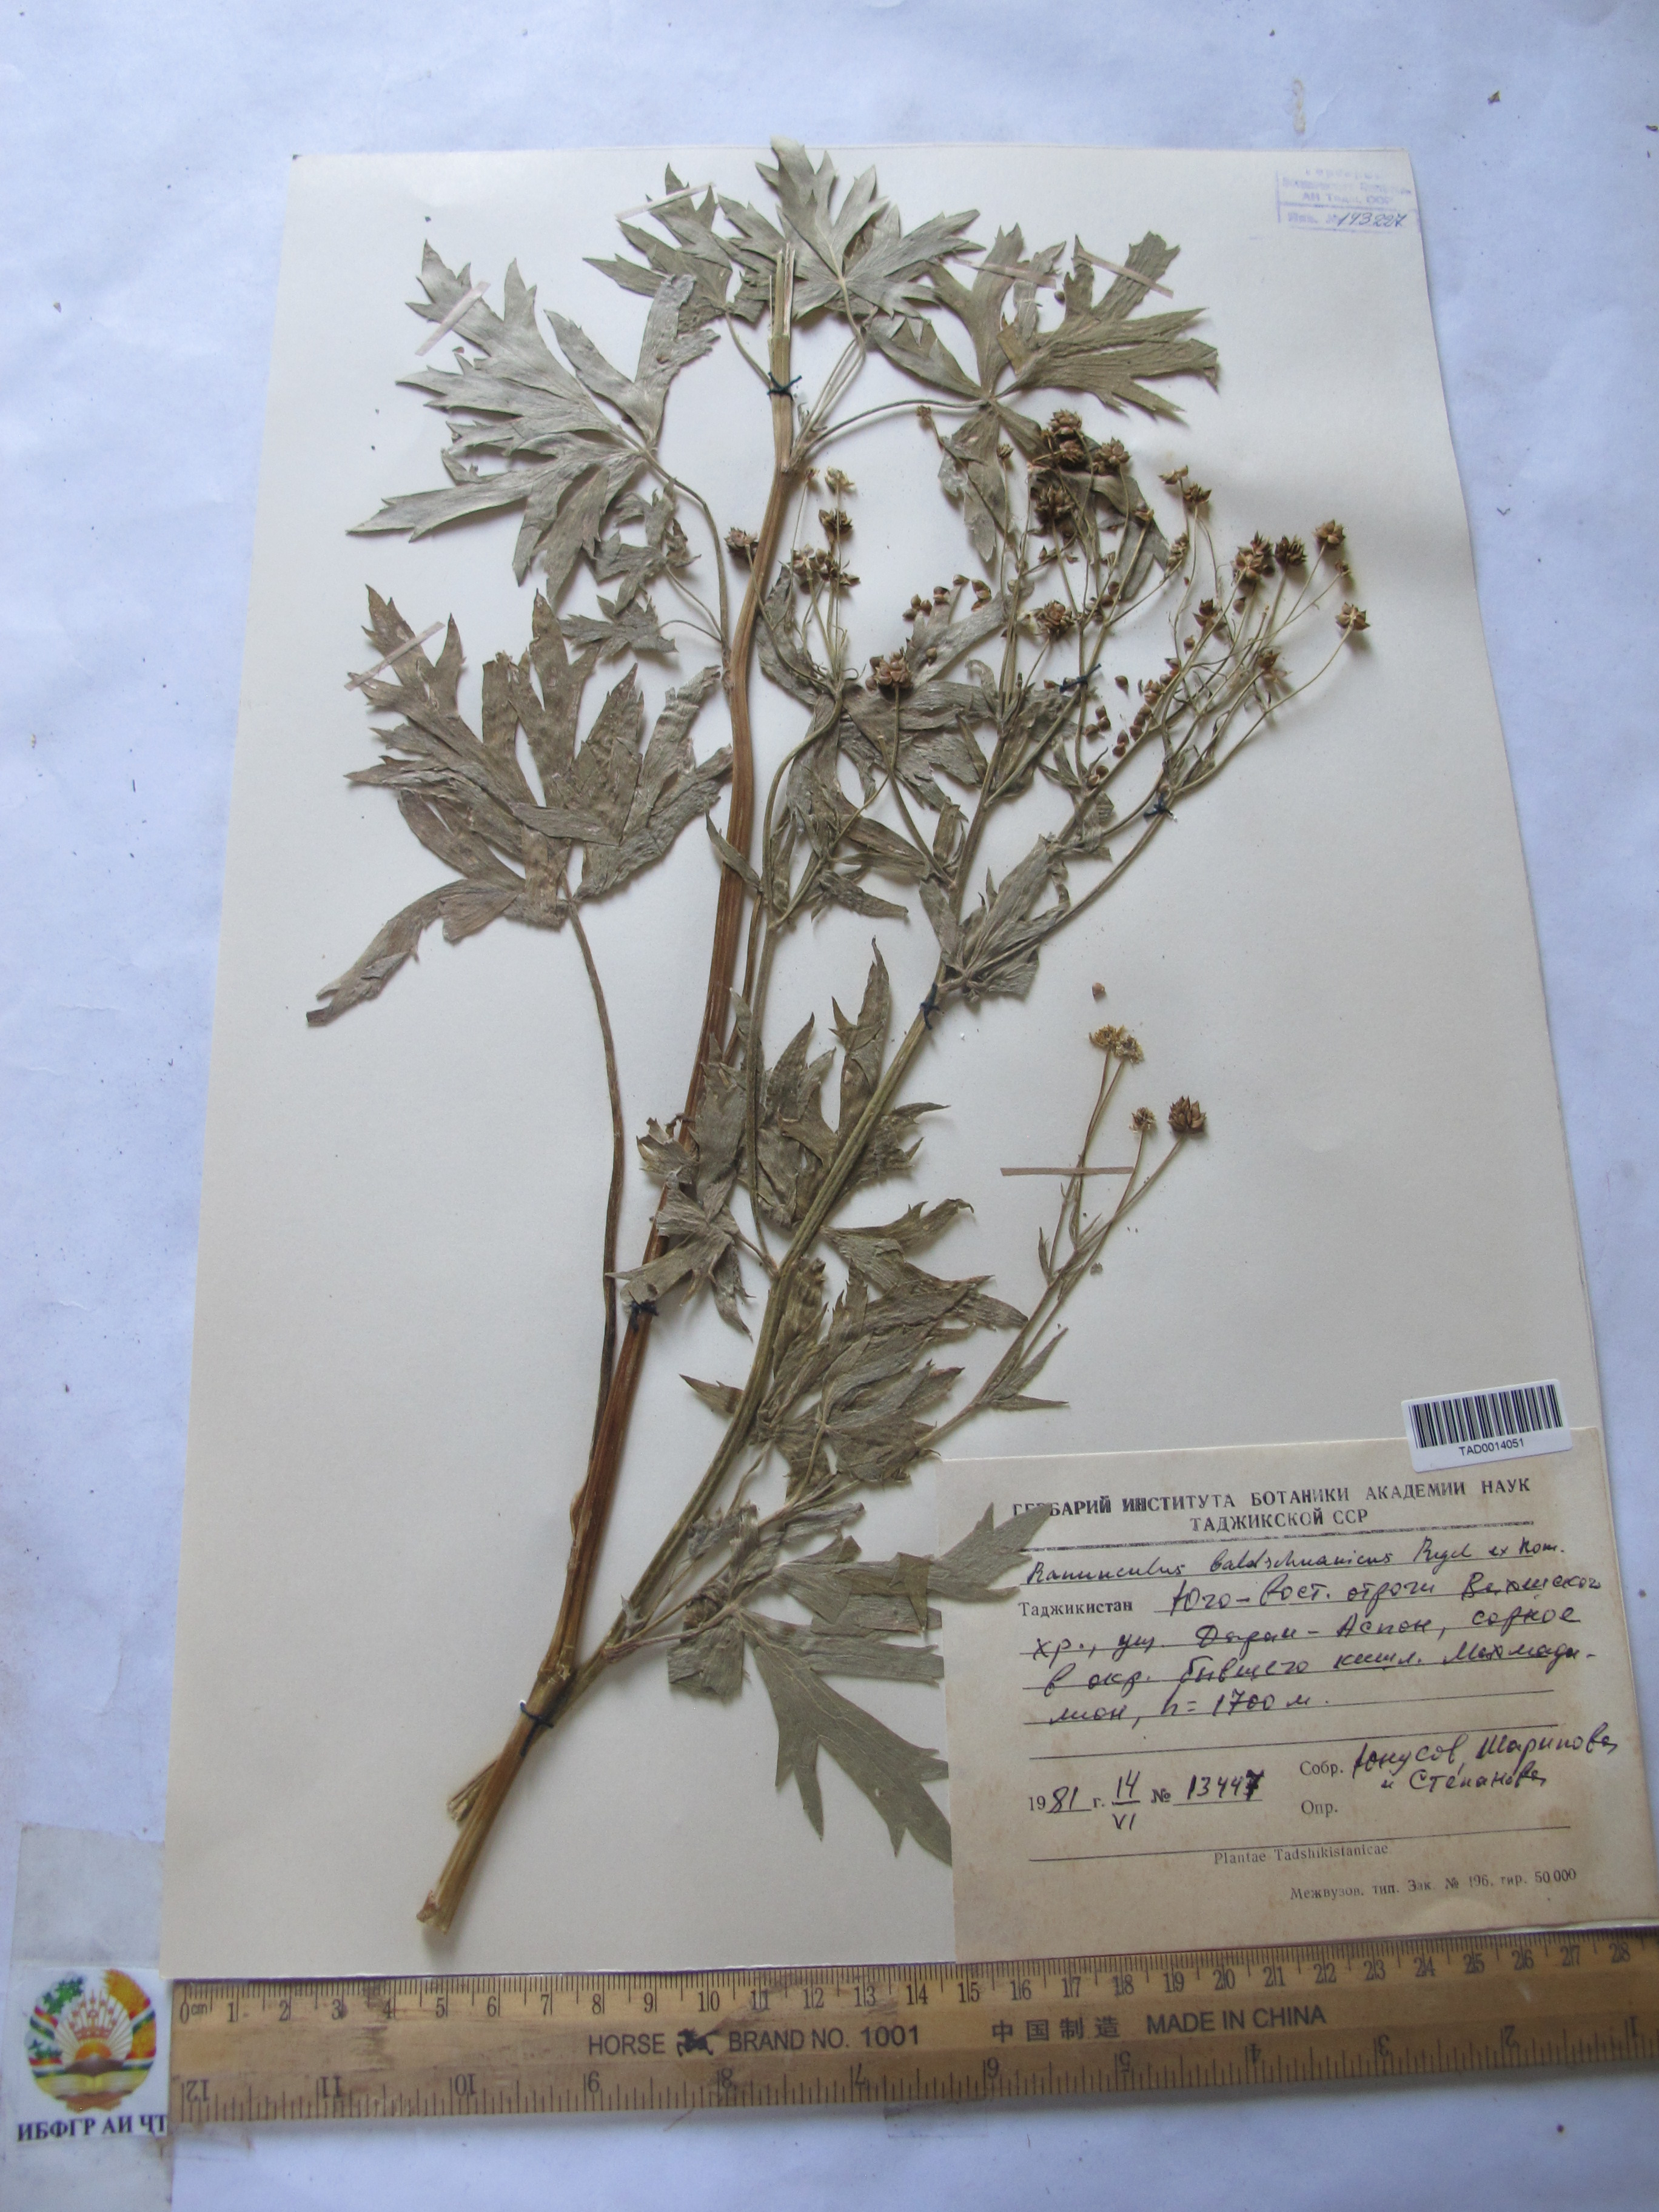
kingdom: Plantae
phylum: Tracheophyta
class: Magnoliopsida
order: Ranunculales
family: Ranunculaceae
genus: Ranunculus
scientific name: Ranunculus baldshuanicus
